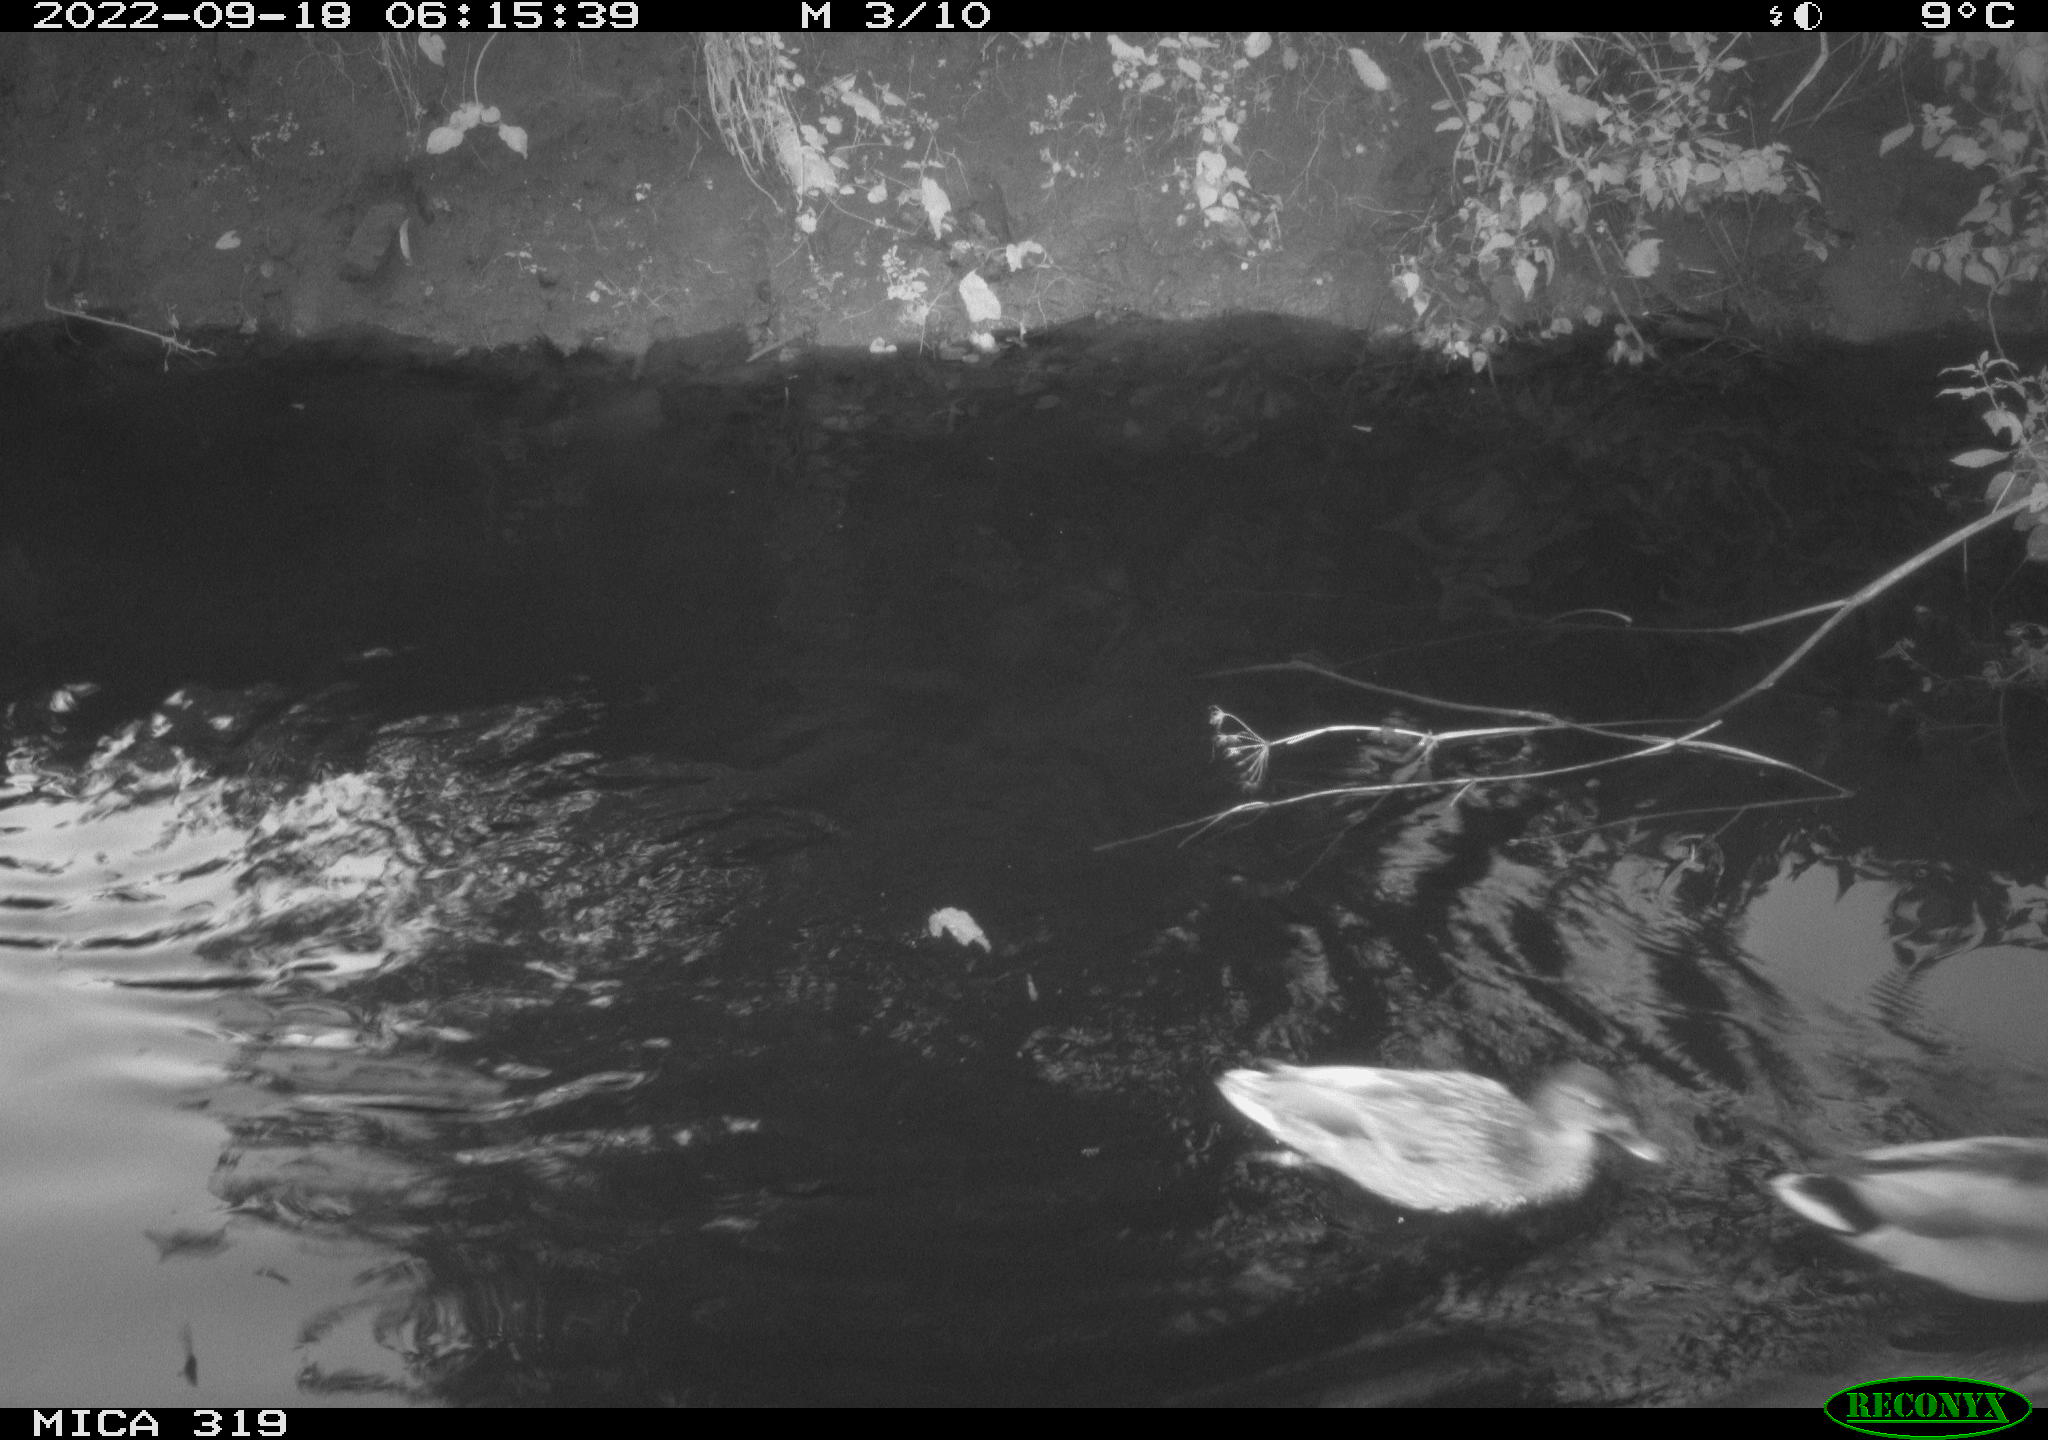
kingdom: Animalia
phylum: Chordata
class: Aves
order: Anseriformes
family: Anatidae
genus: Anas
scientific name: Anas
